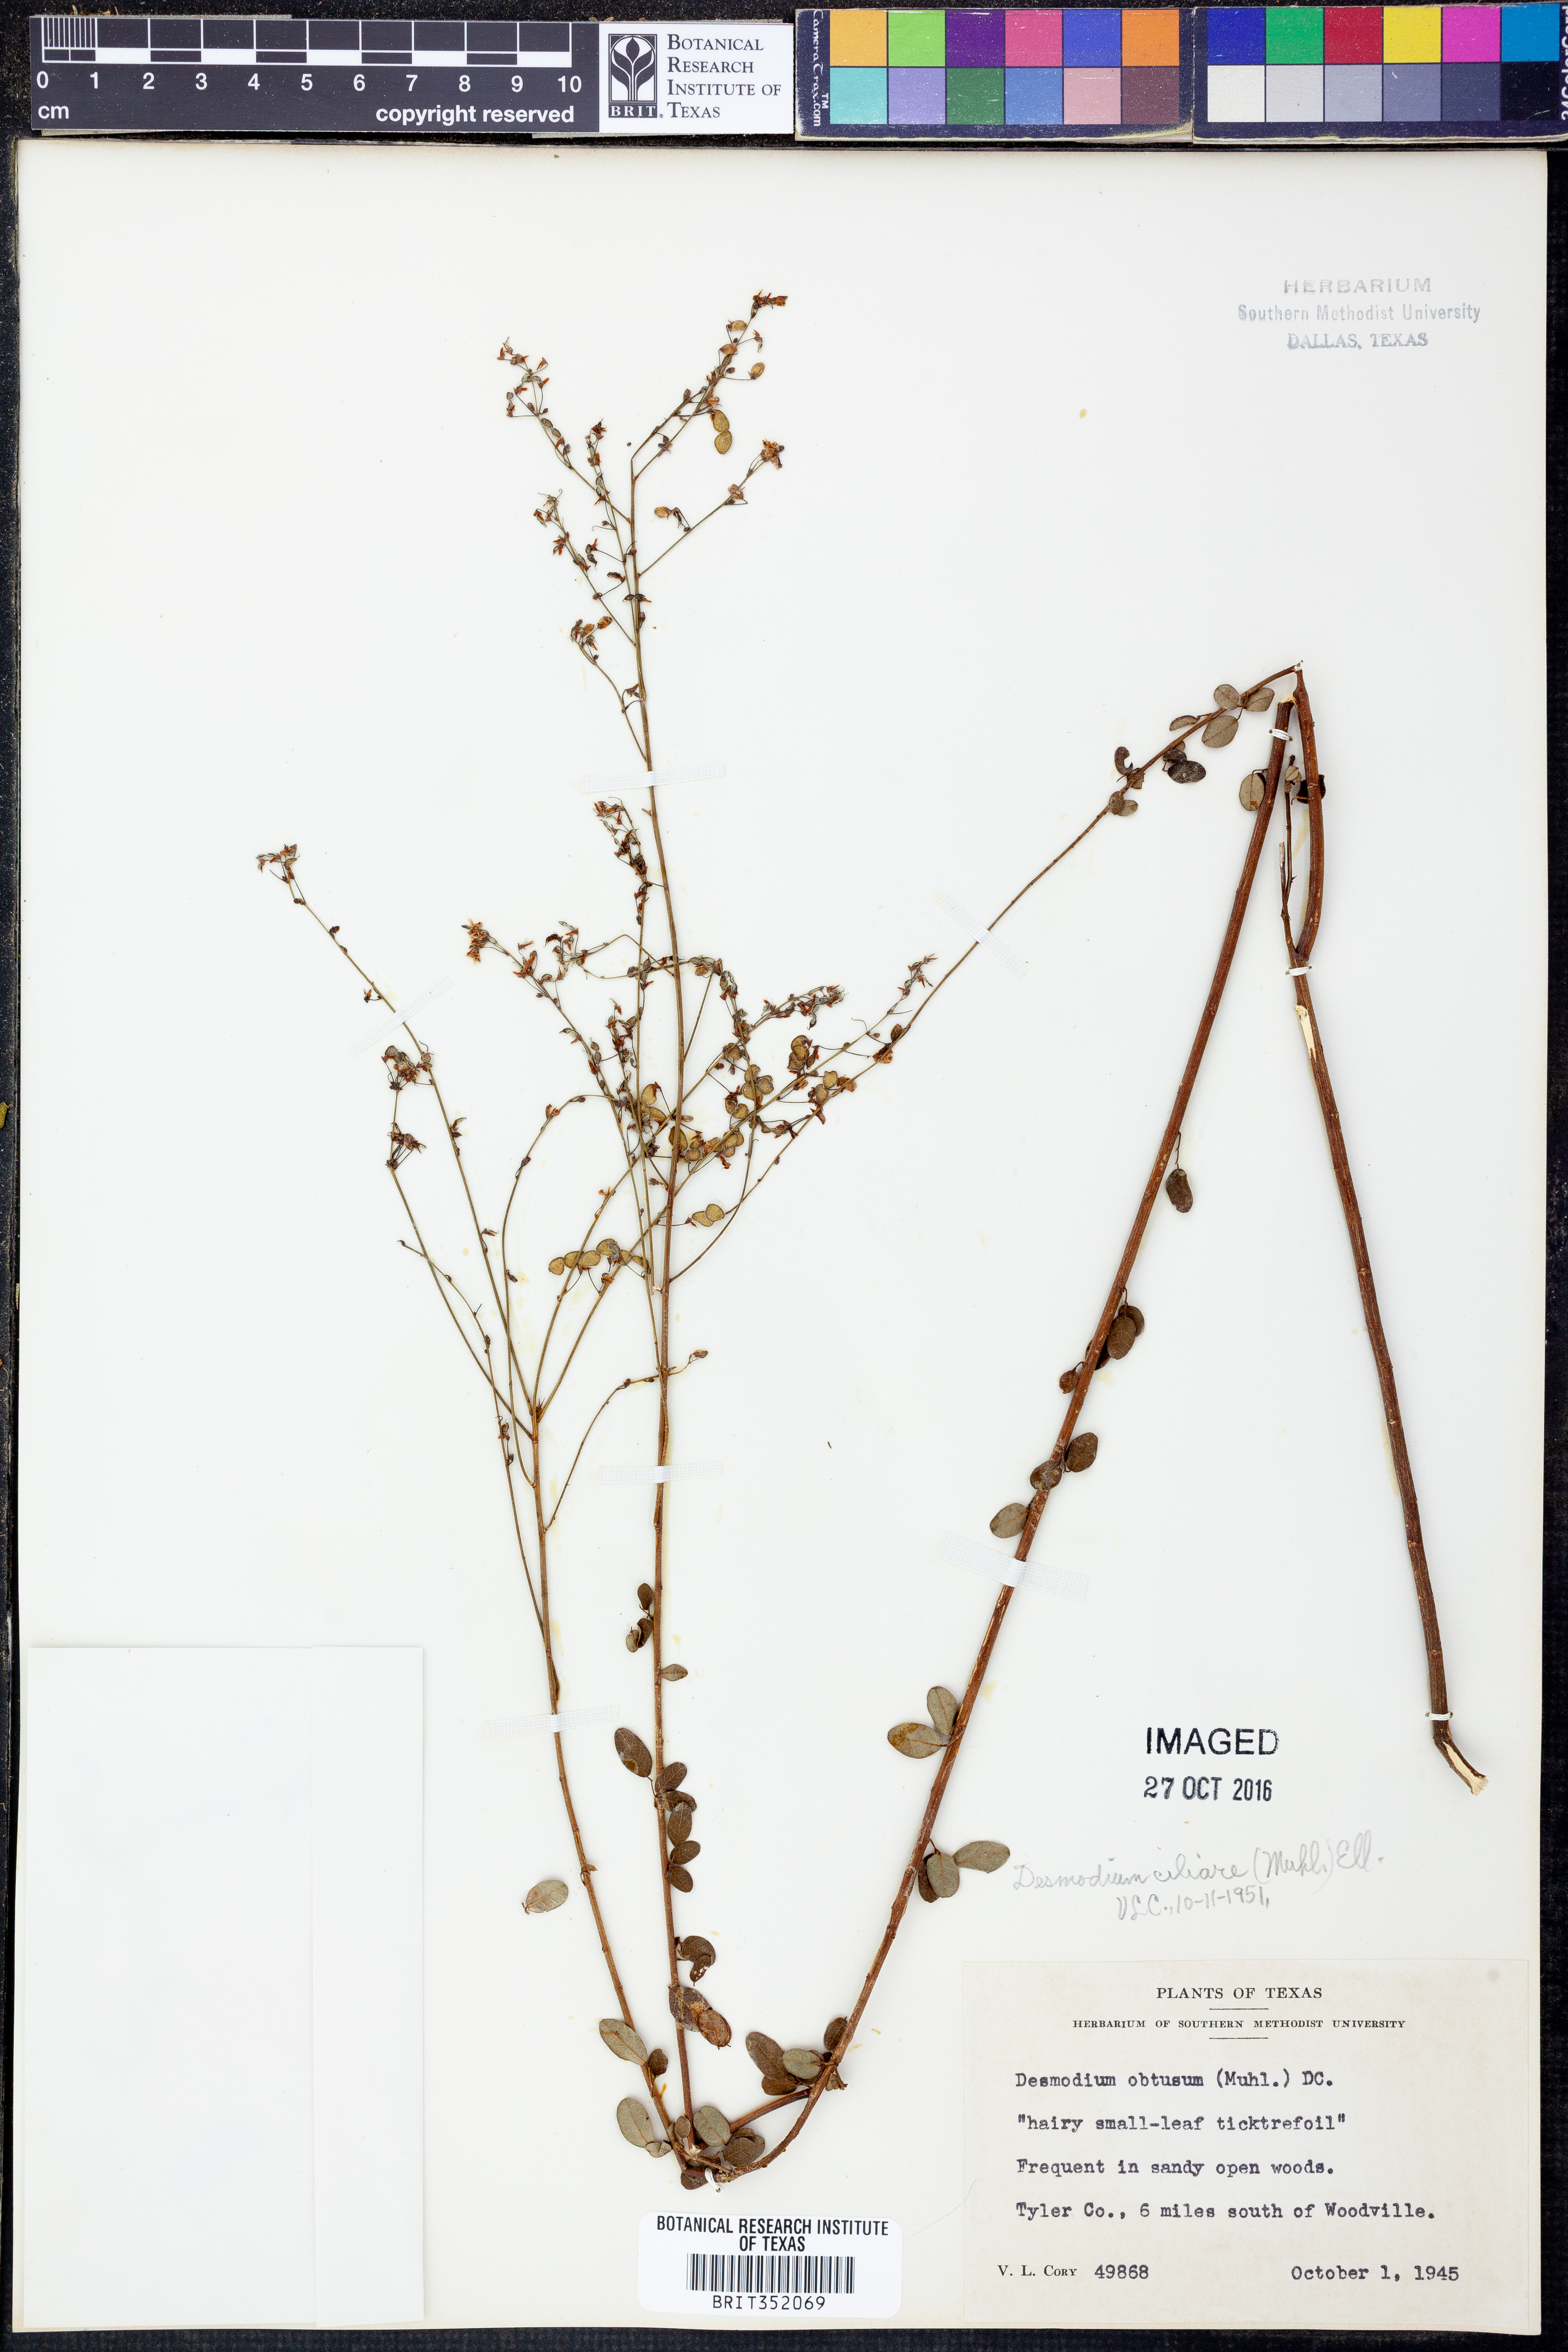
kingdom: Plantae
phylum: Tracheophyta
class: Magnoliopsida
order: Fabales
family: Fabaceae
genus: Desmodium
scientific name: Desmodium ciliare
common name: Hairy small-leaf ticktrefoil
